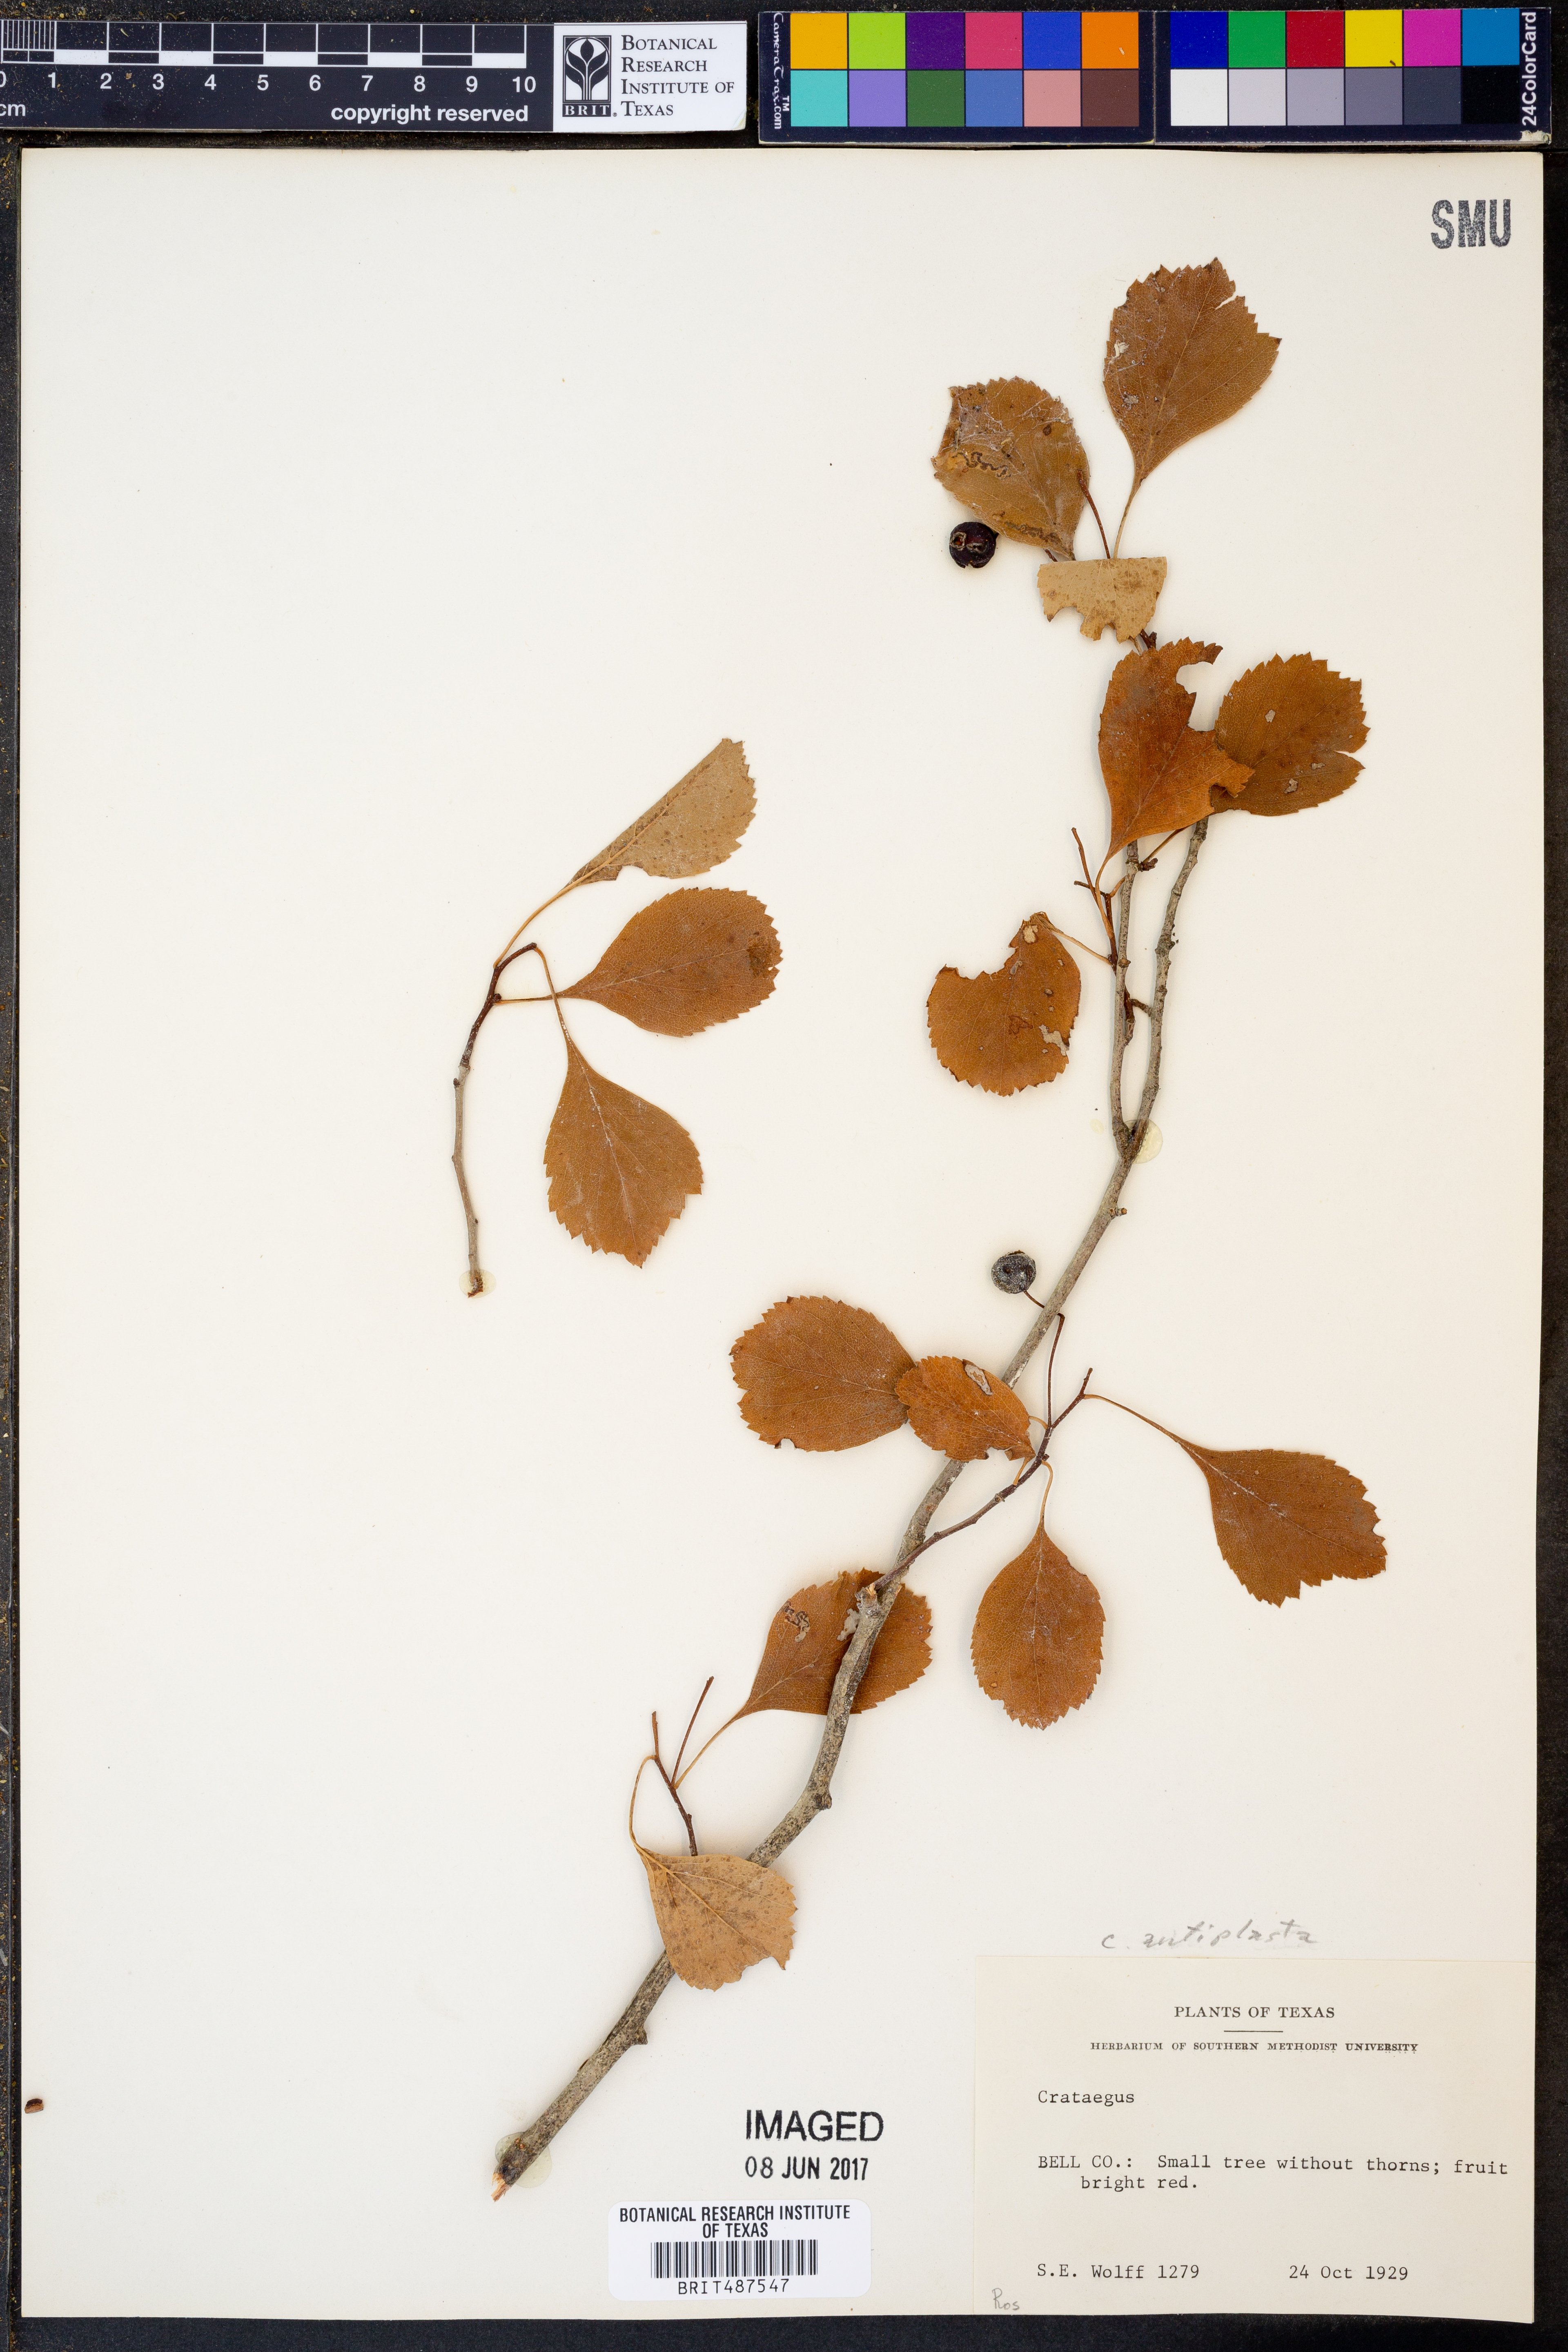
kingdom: Plantae
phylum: Tracheophyta
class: Magnoliopsida
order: Rosales
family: Rosaceae
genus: Crataegus
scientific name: Crataegus anamesa
